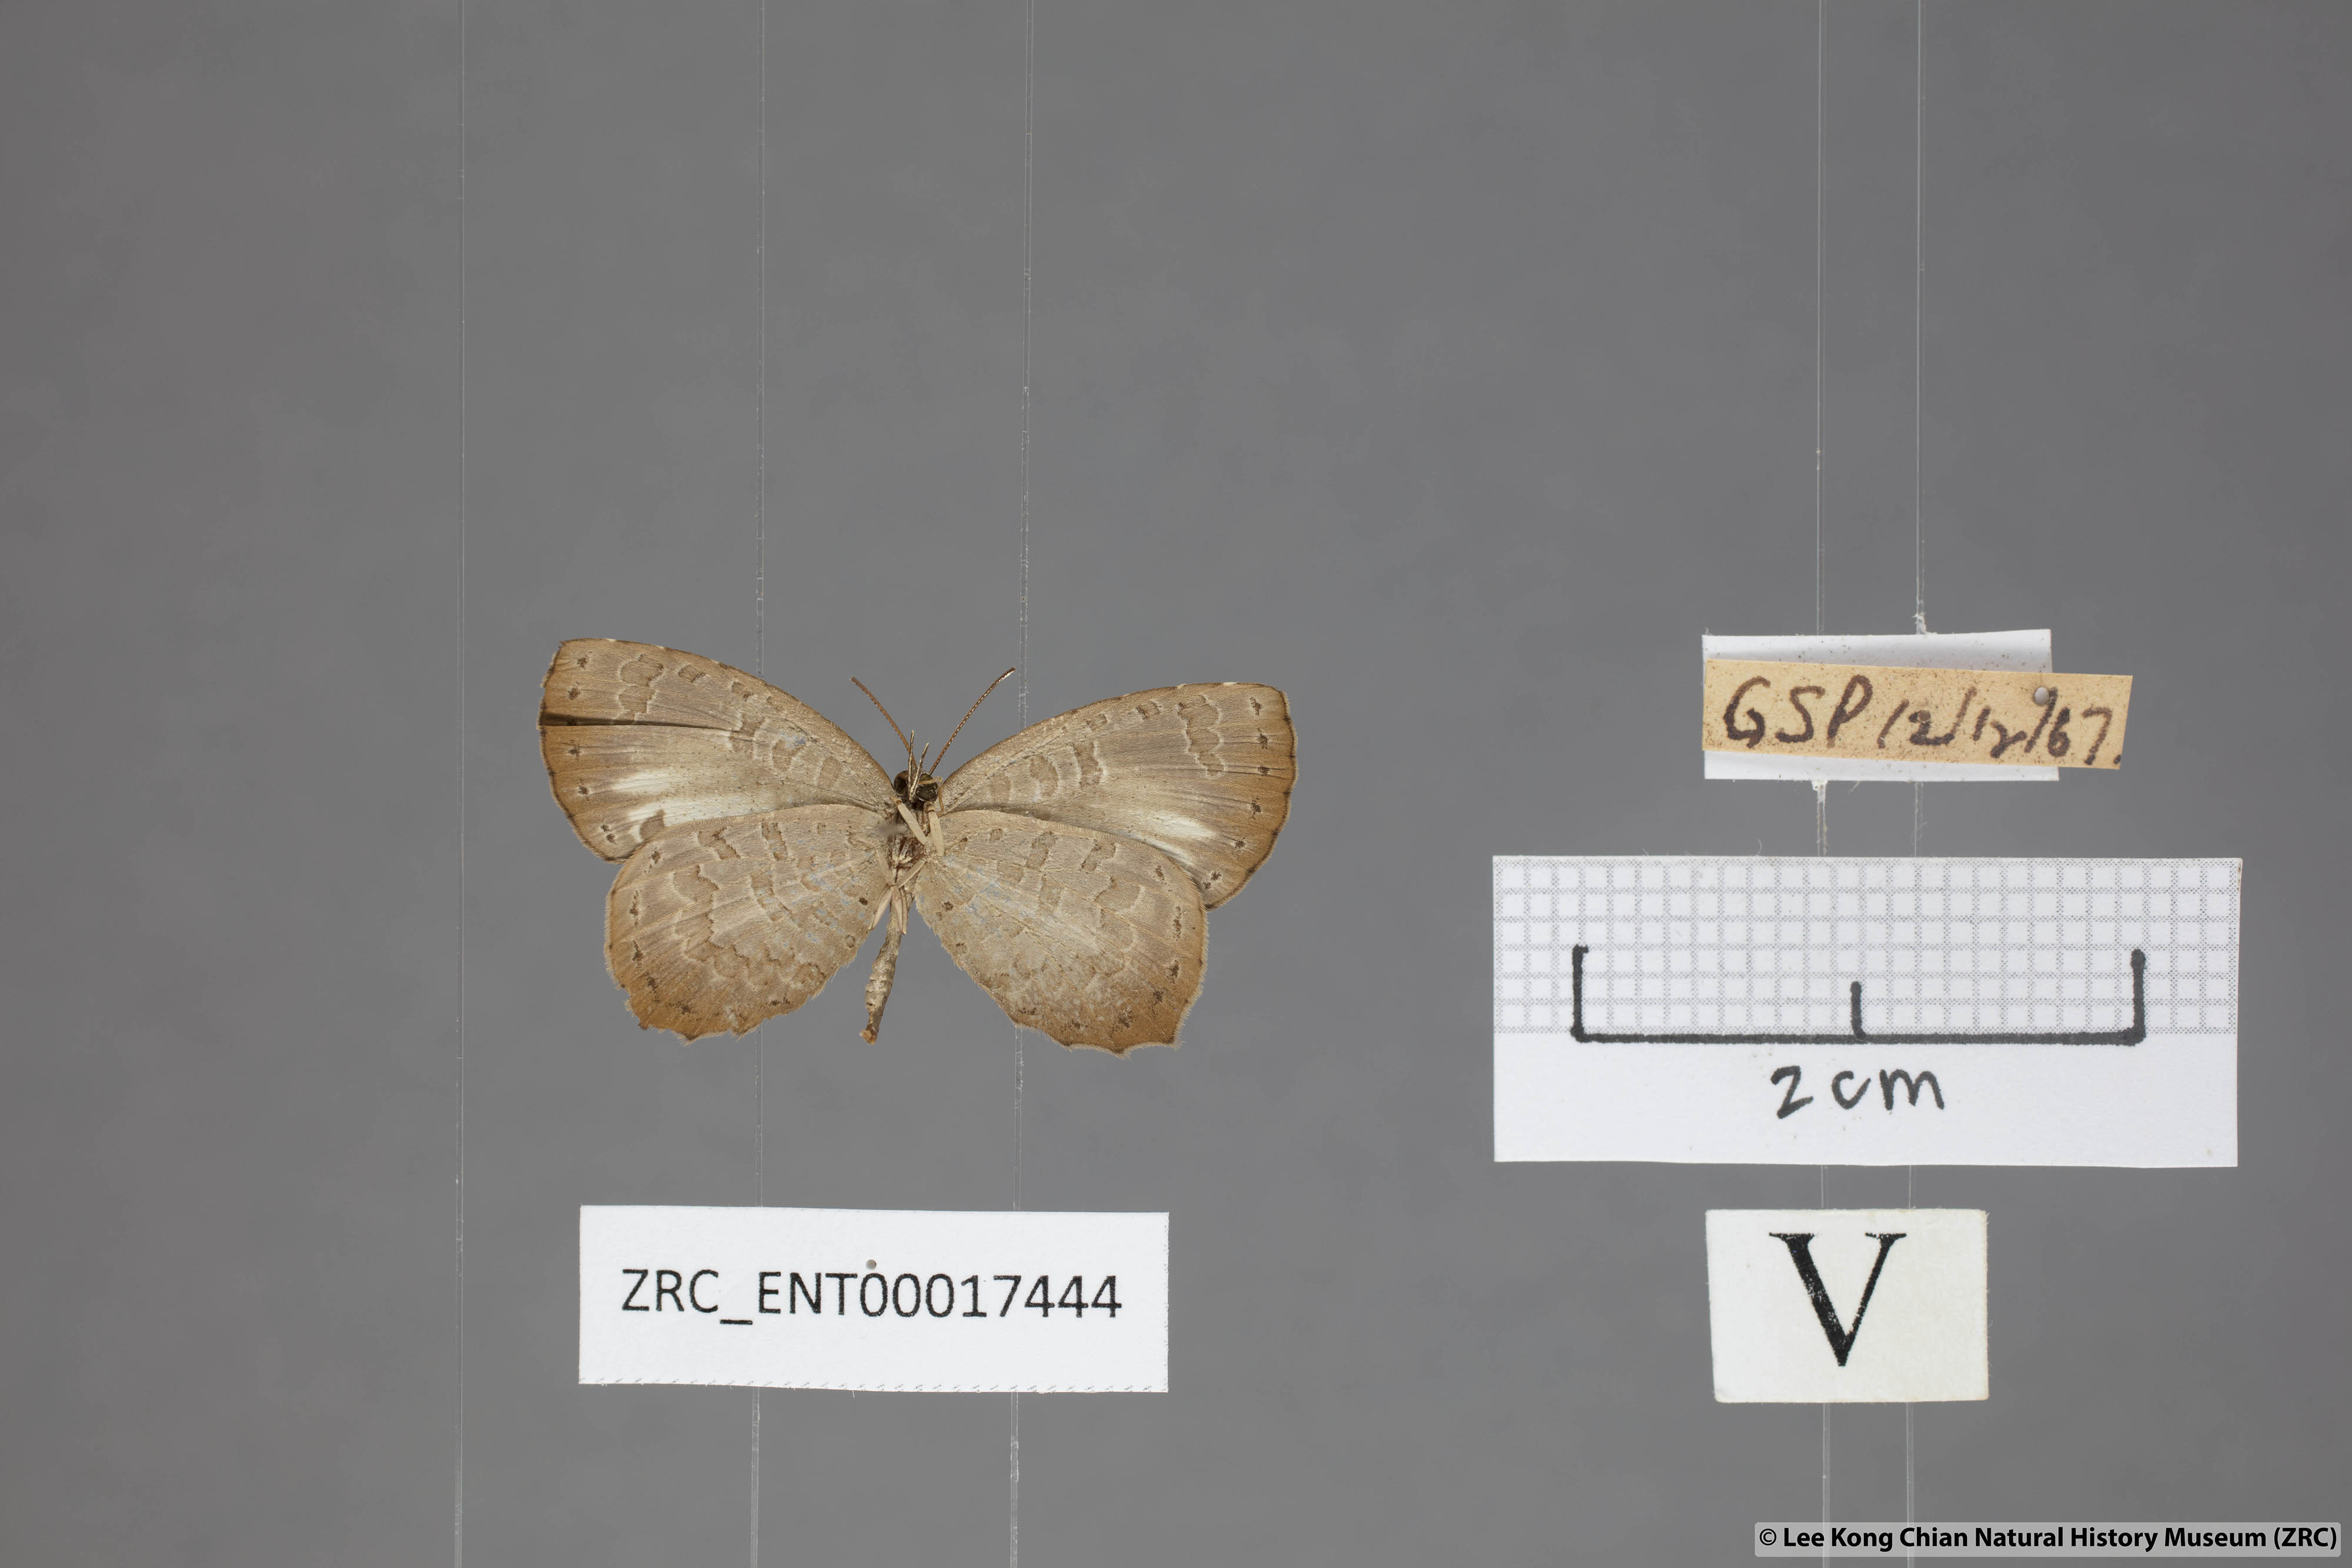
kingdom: Animalia
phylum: Arthropoda
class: Insecta
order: Lepidoptera
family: Lycaenidae
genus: Miletus
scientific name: Miletus gaesa
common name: Brown brownie
